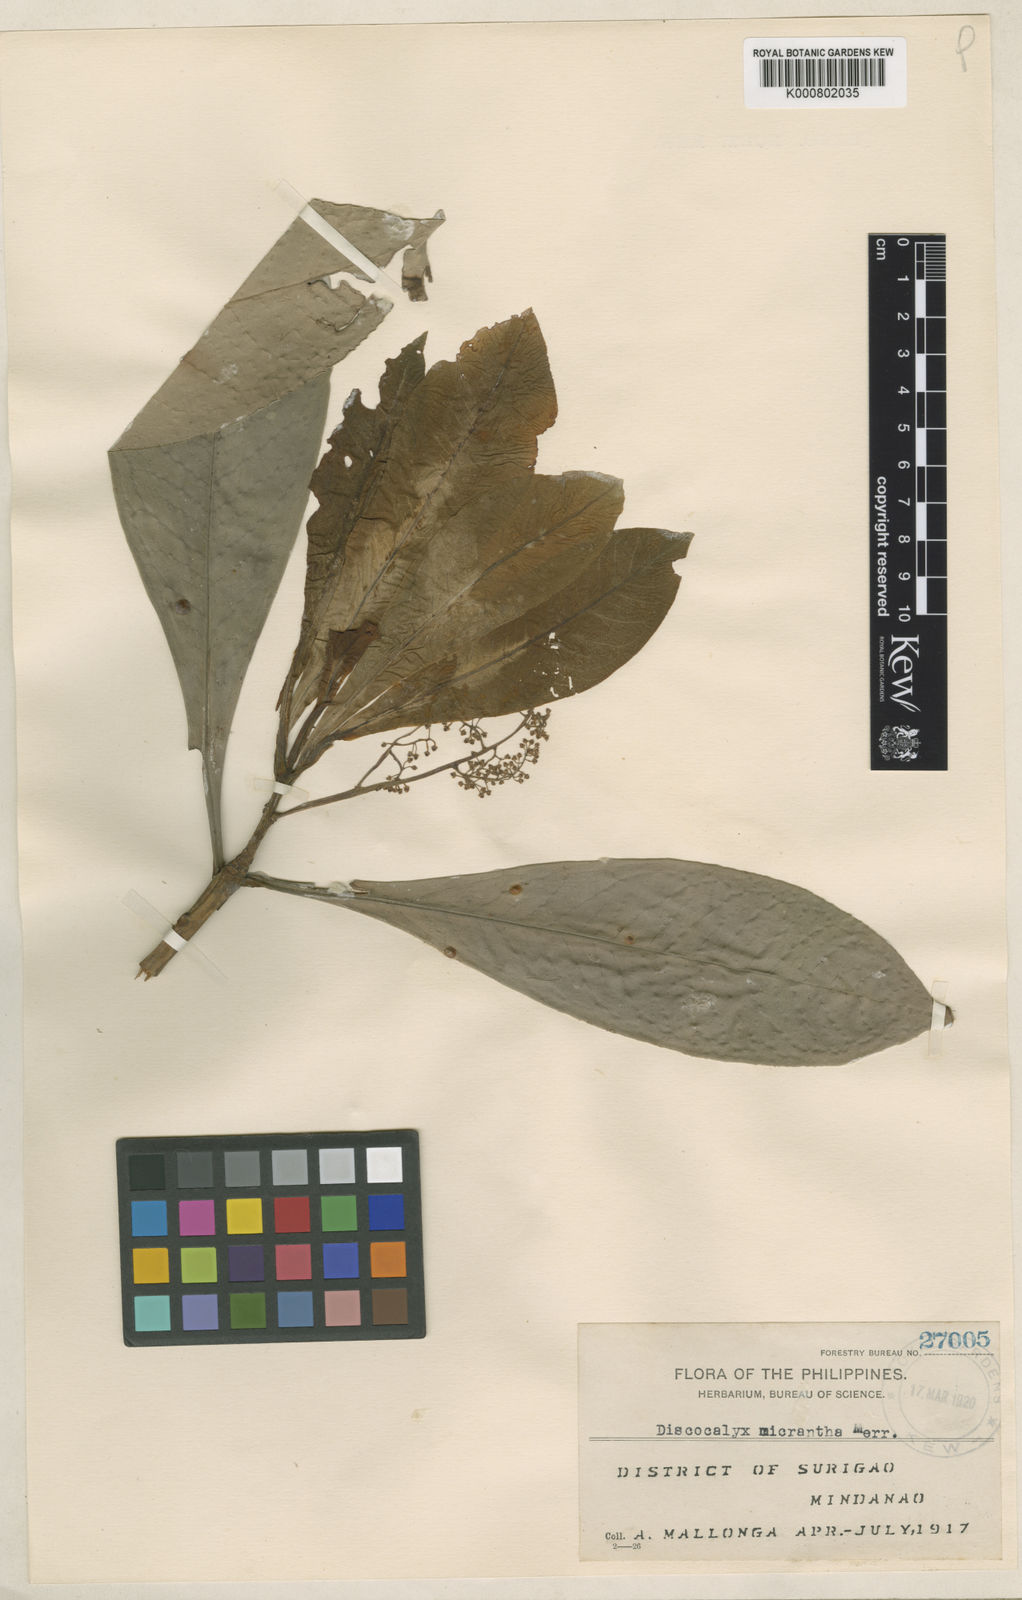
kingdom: Plantae
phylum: Tracheophyta
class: Magnoliopsida
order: Ericales
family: Primulaceae
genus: Discocalyx
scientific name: Discocalyx micrantha
